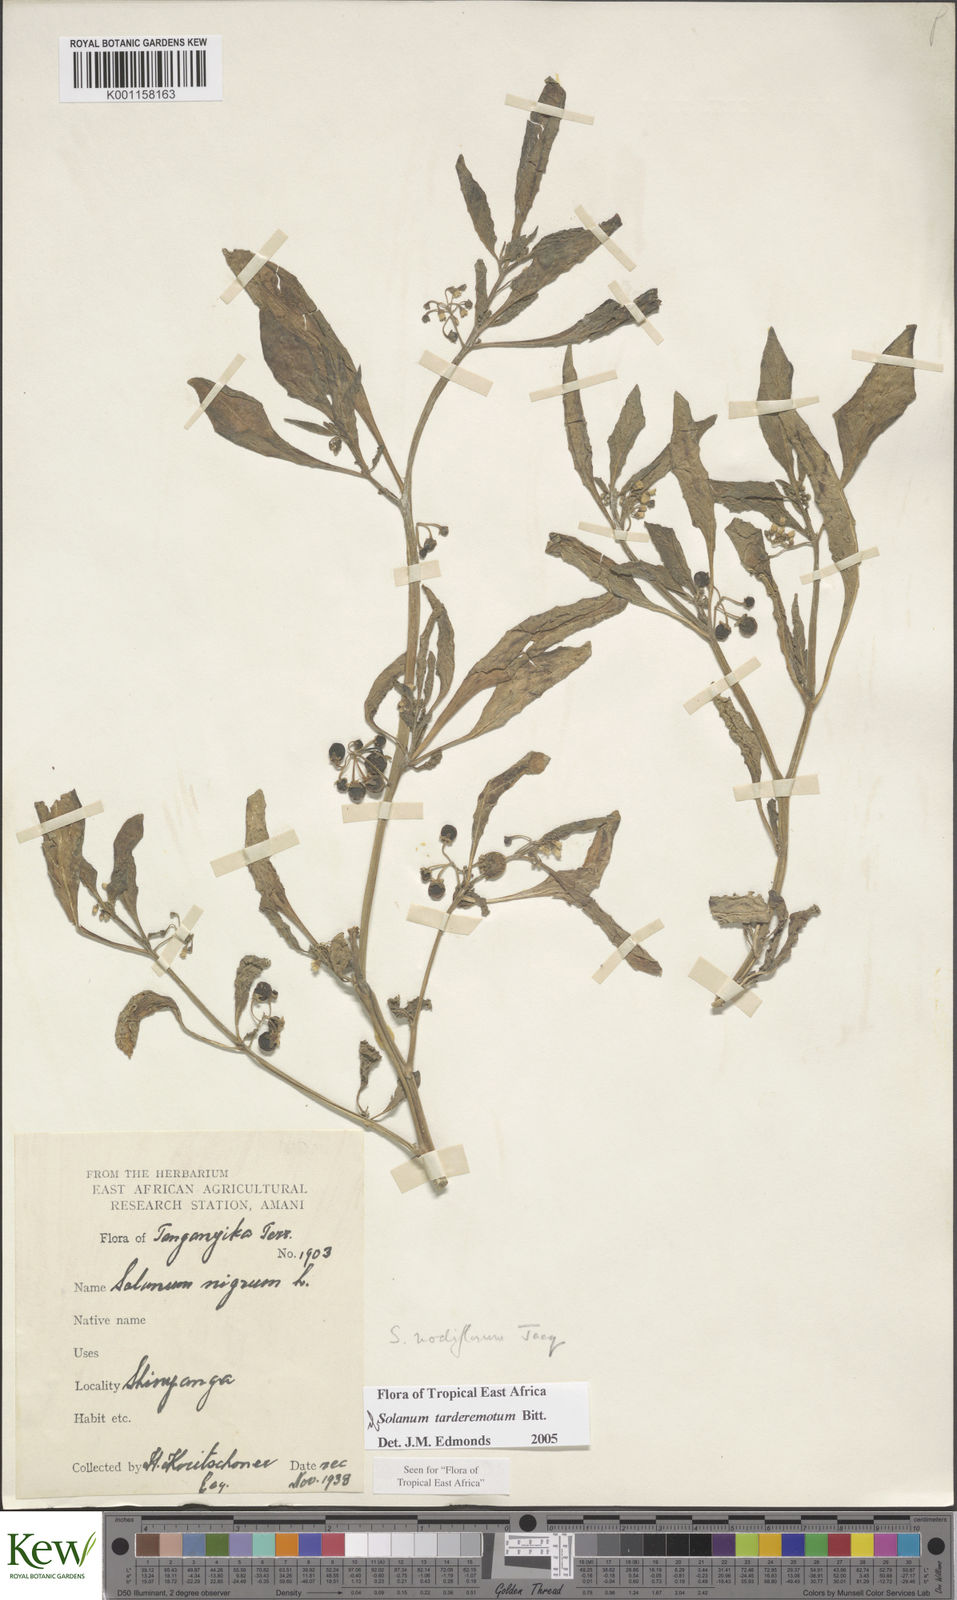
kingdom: Plantae
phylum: Tracheophyta
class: Magnoliopsida
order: Solanales
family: Solanaceae
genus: Solanum
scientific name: Solanum tarderemotum
